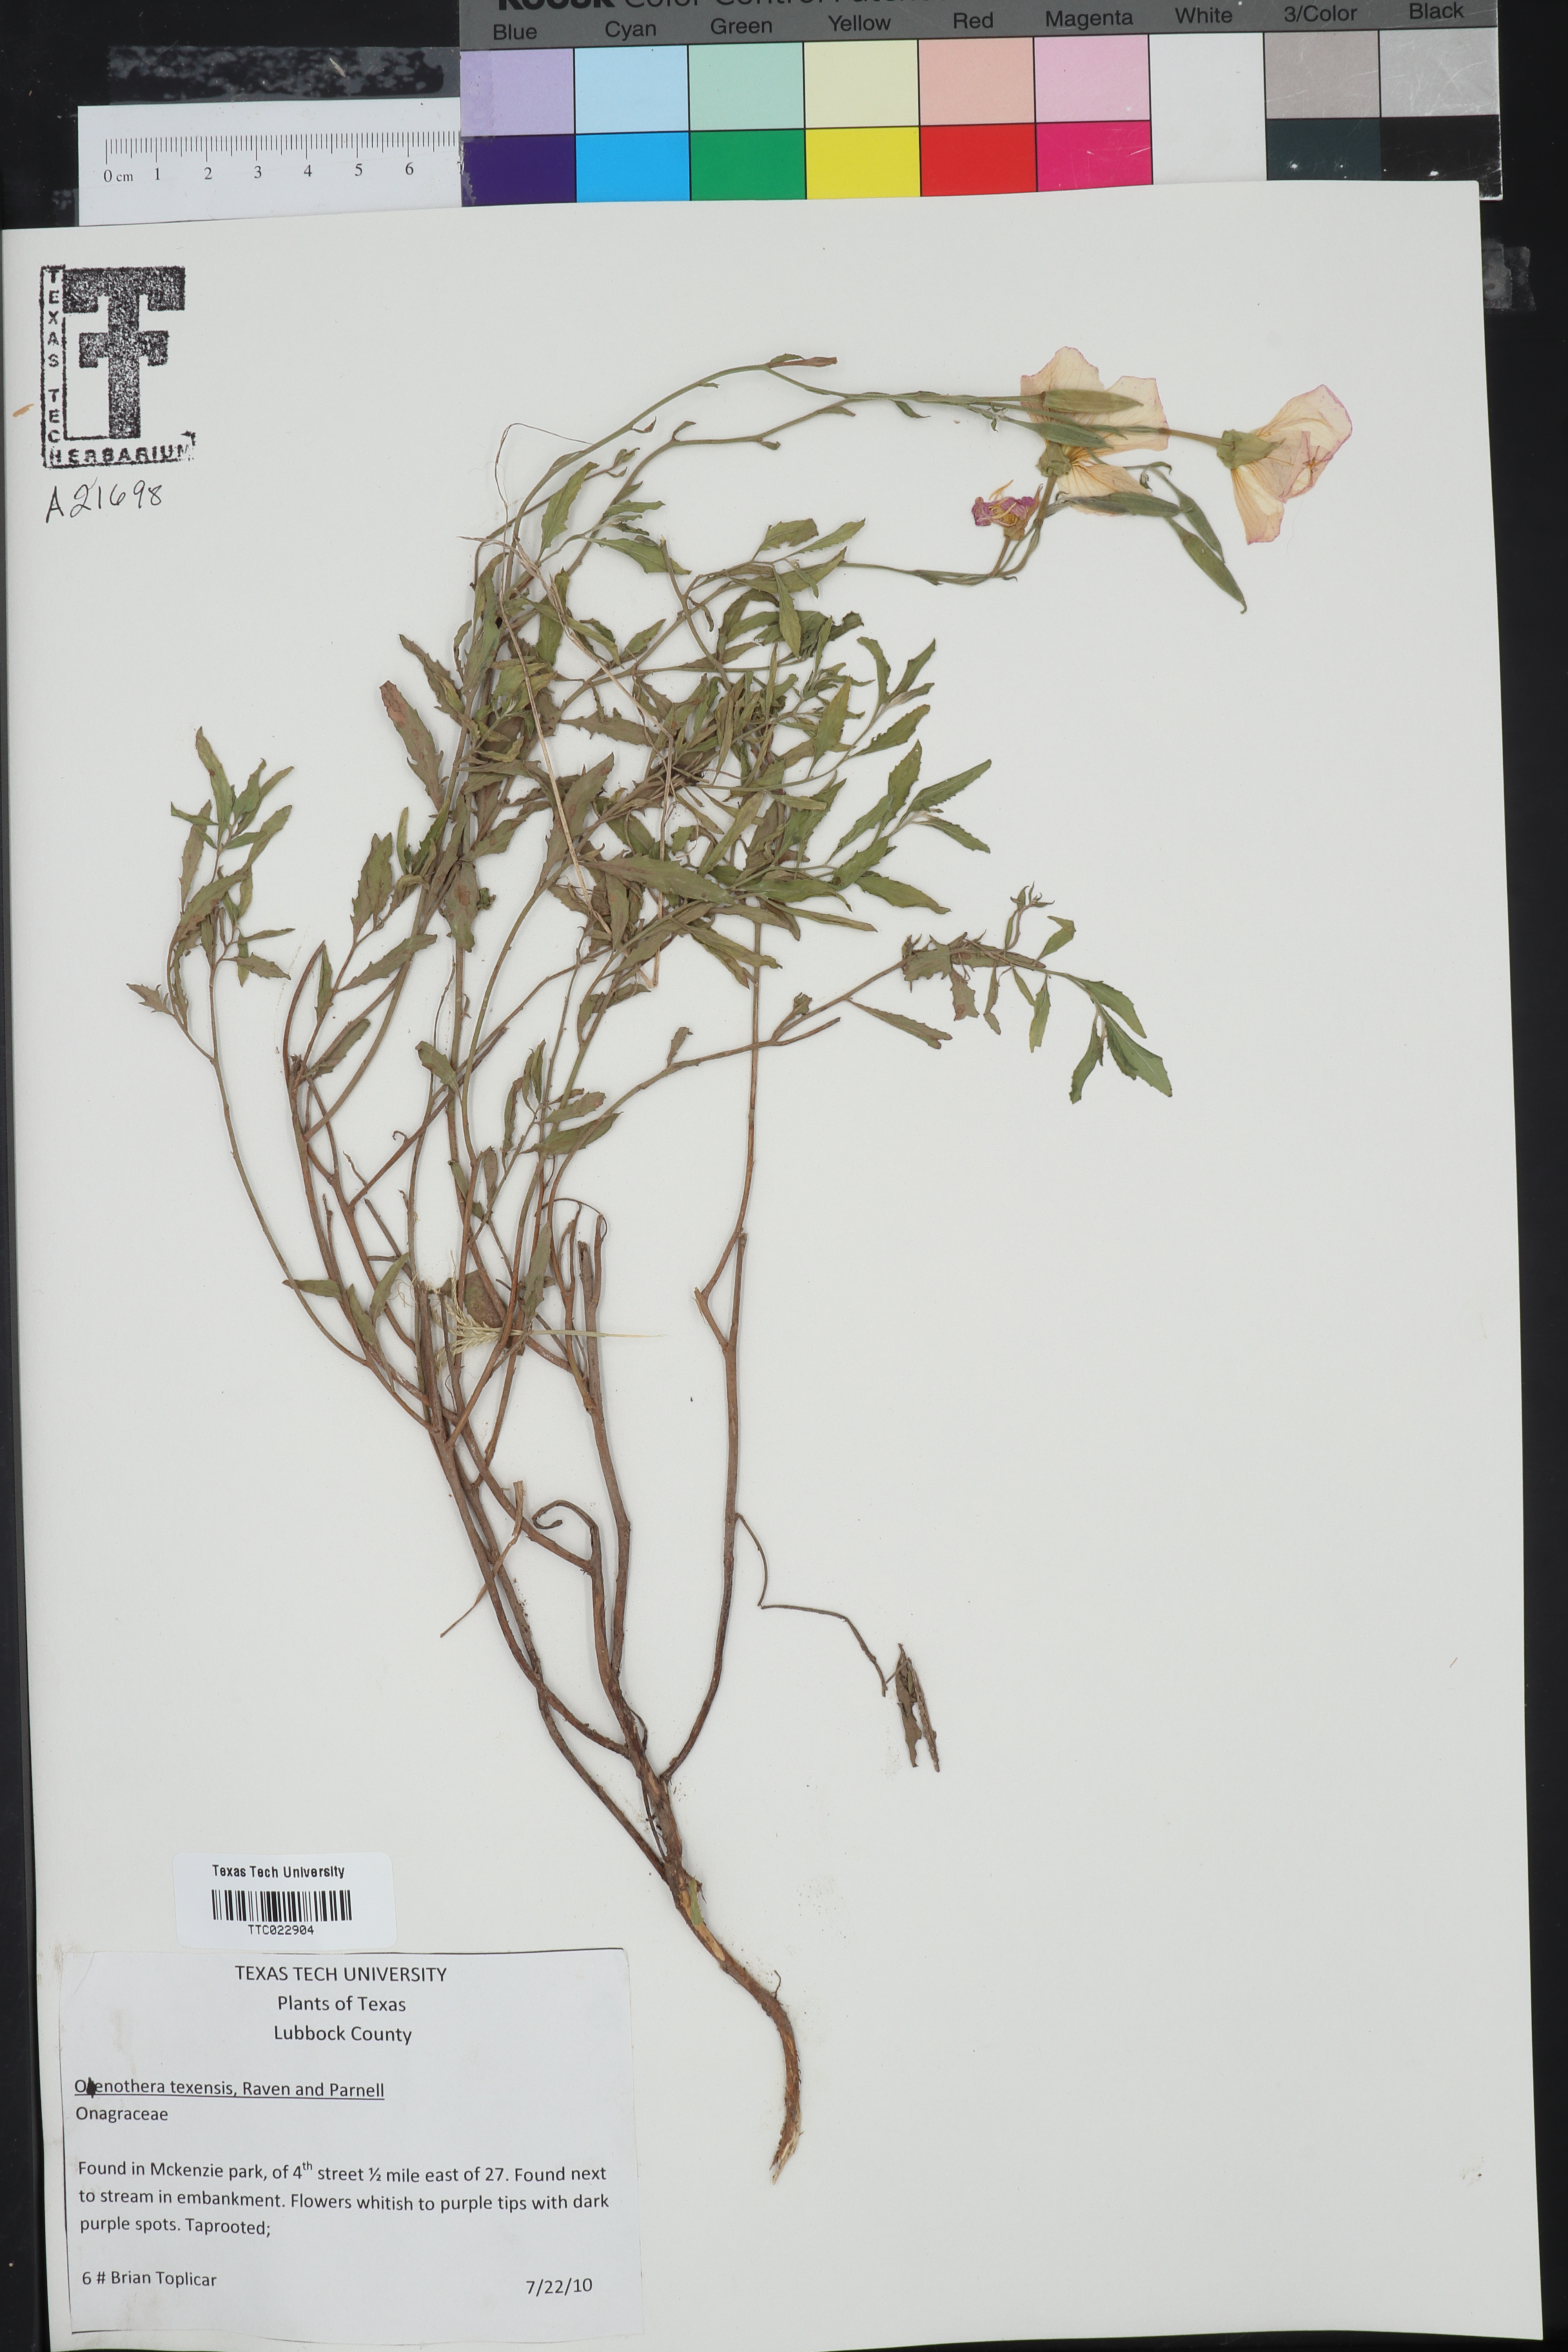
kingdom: Plantae
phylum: Tracheophyta
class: Magnoliopsida
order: Myrtales
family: Onagraceae
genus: Oenothera
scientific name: Oenothera texensis
